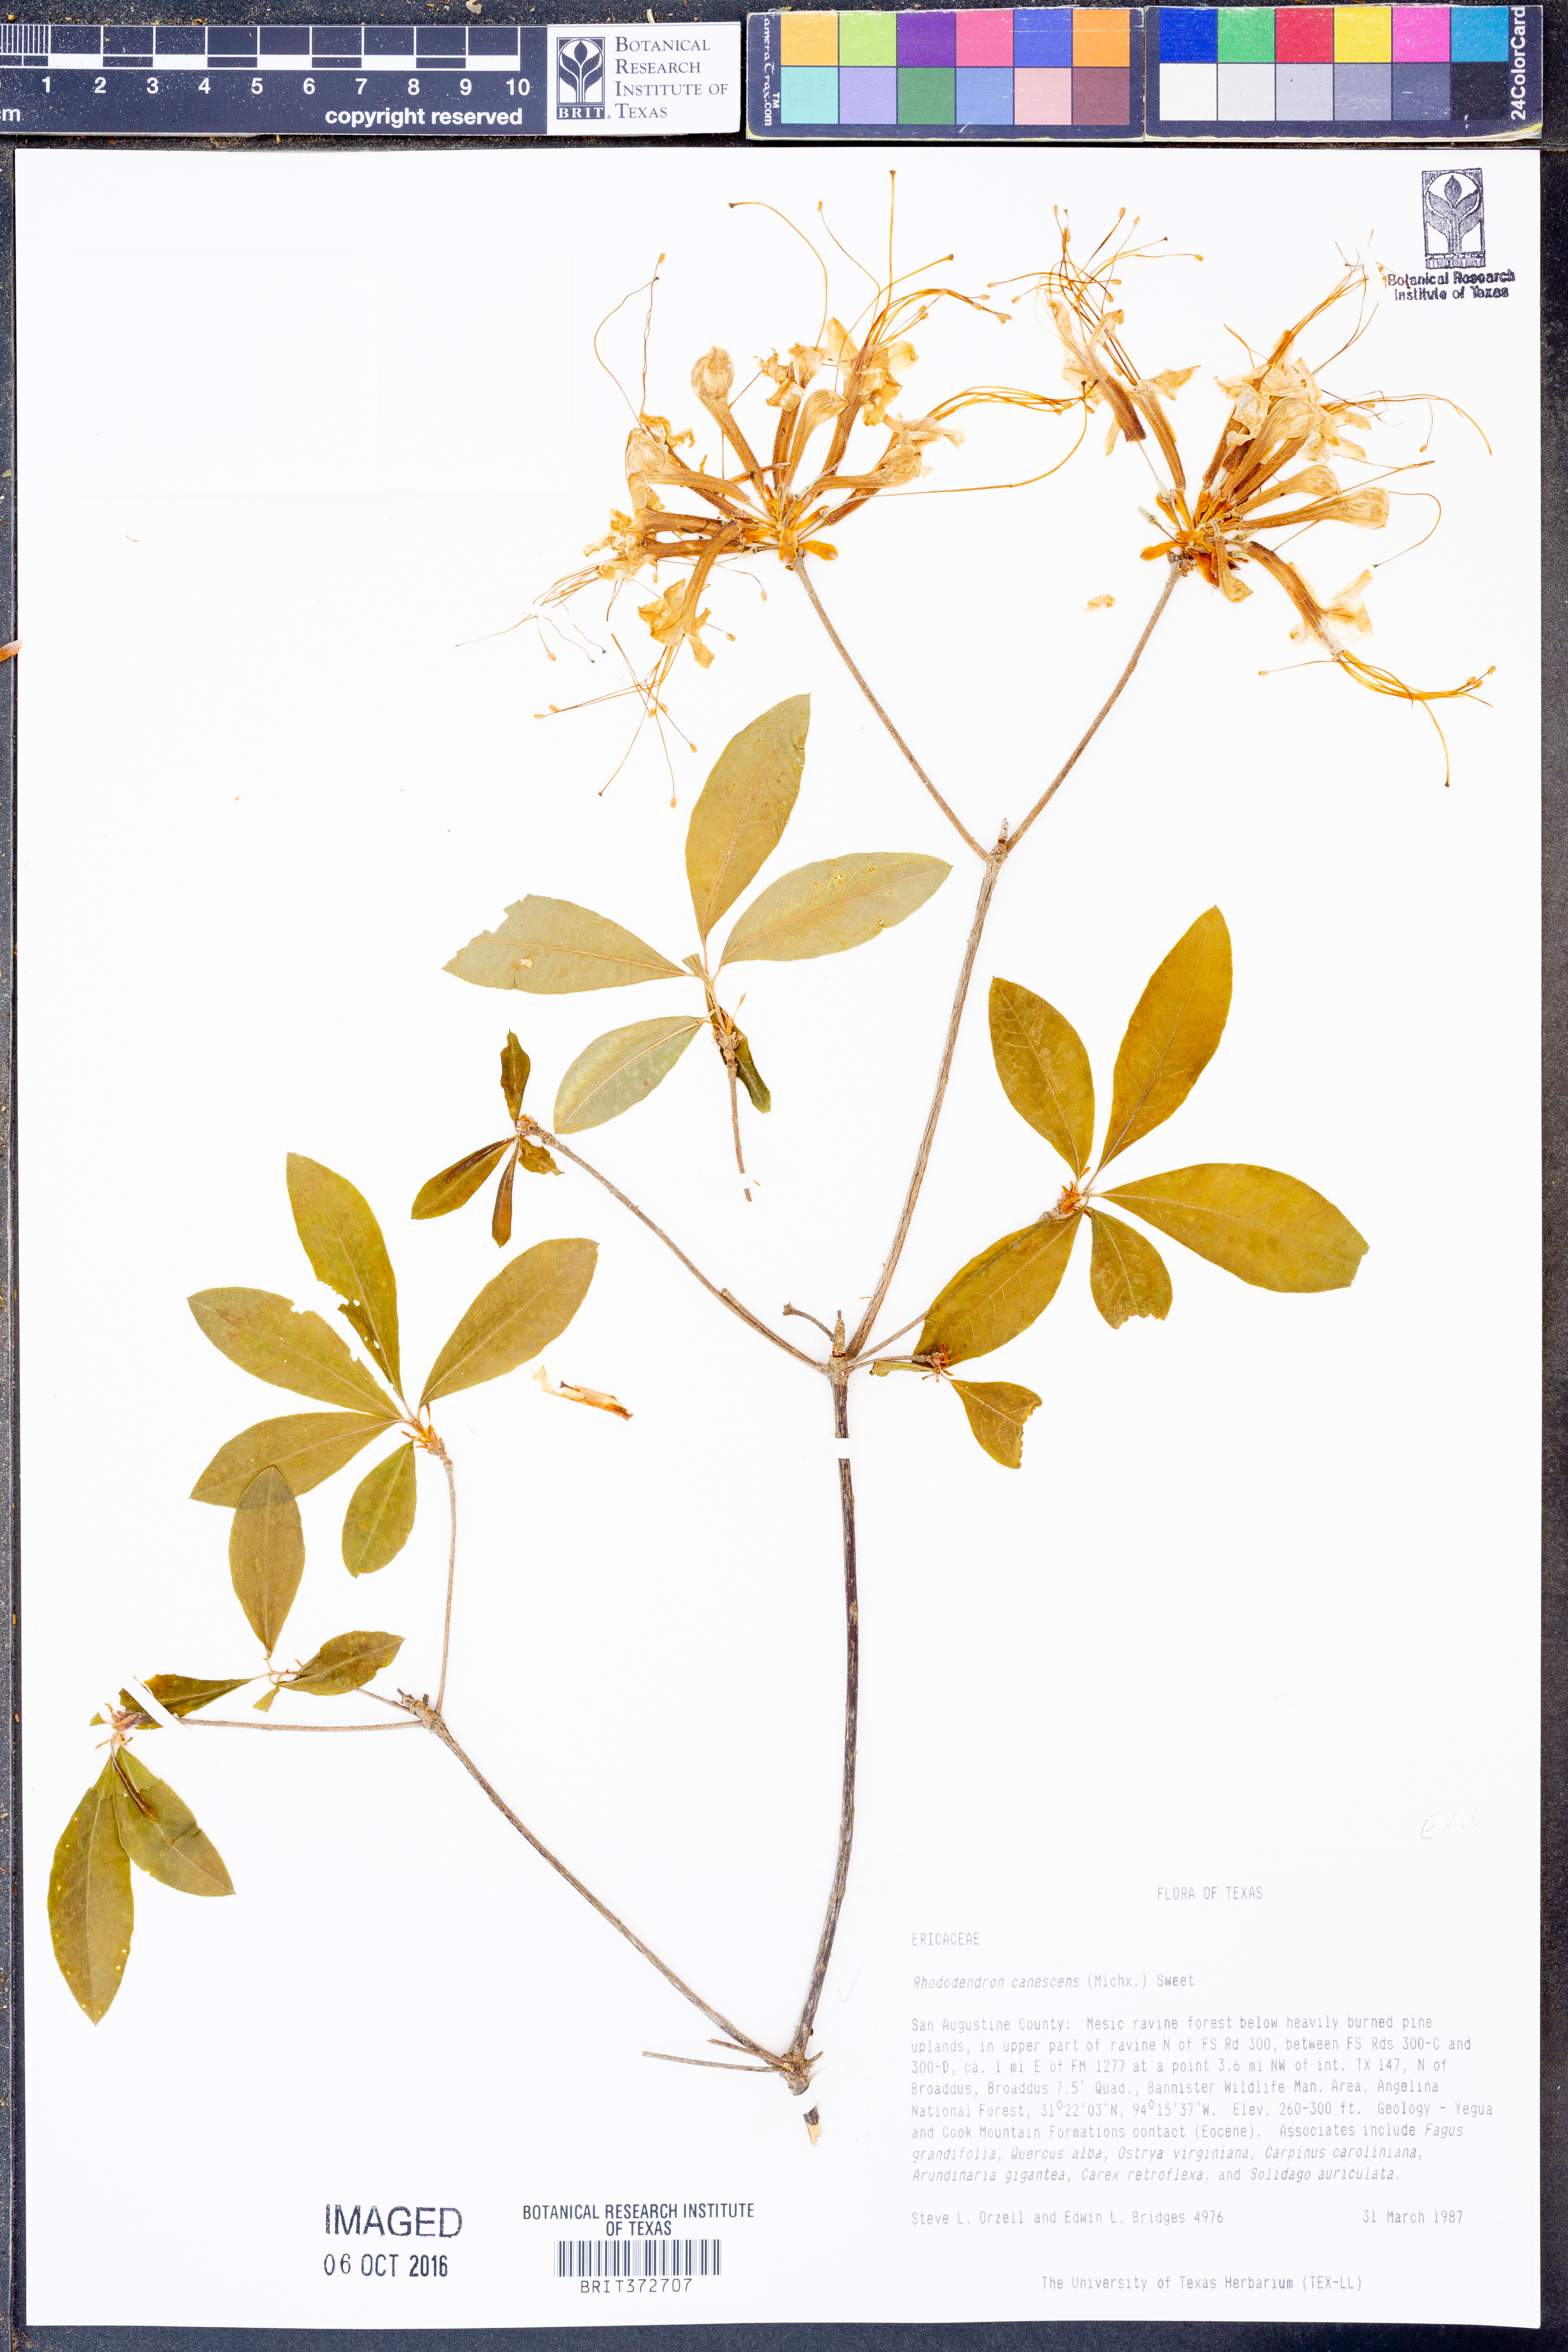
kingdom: Plantae
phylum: Tracheophyta
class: Magnoliopsida
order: Ericales
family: Ericaceae
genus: Rhododendron
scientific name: Rhododendron canescens
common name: Mountain azalea
